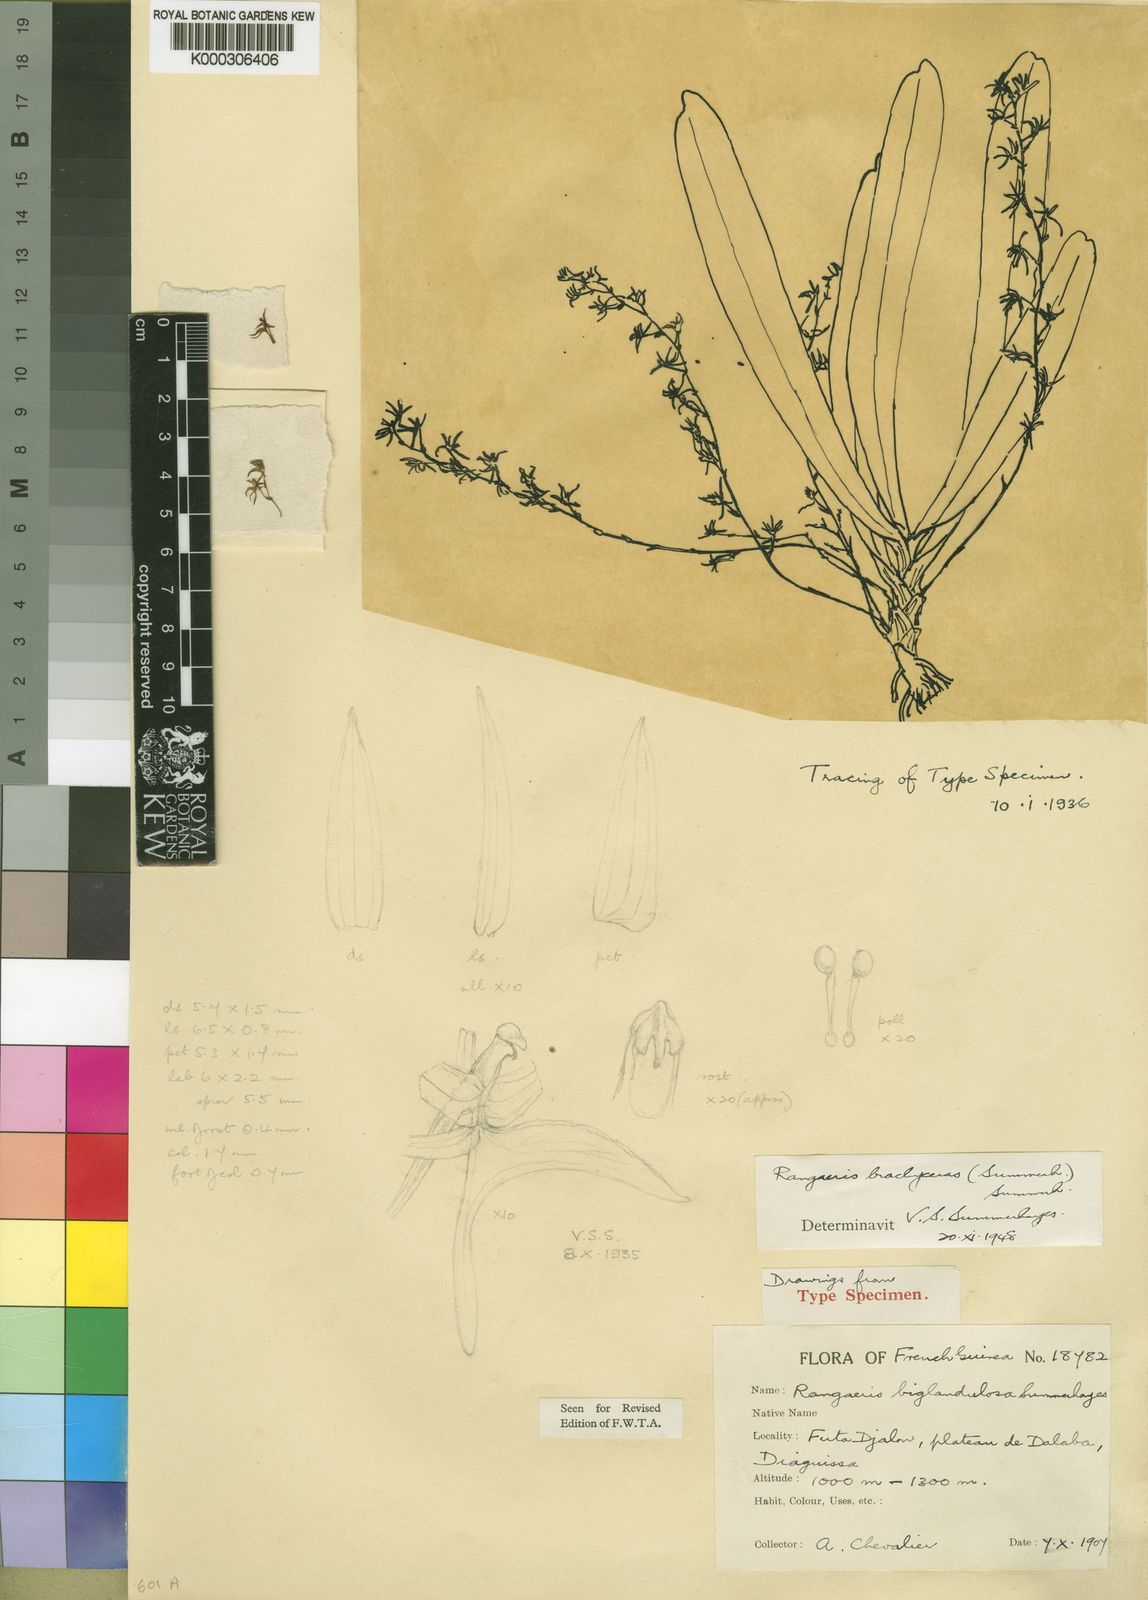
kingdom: Plantae
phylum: Tracheophyta
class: Liliopsida
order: Asparagales
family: Orchidaceae
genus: Rhipidoglossum
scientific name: Rhipidoglossum brachyceras
